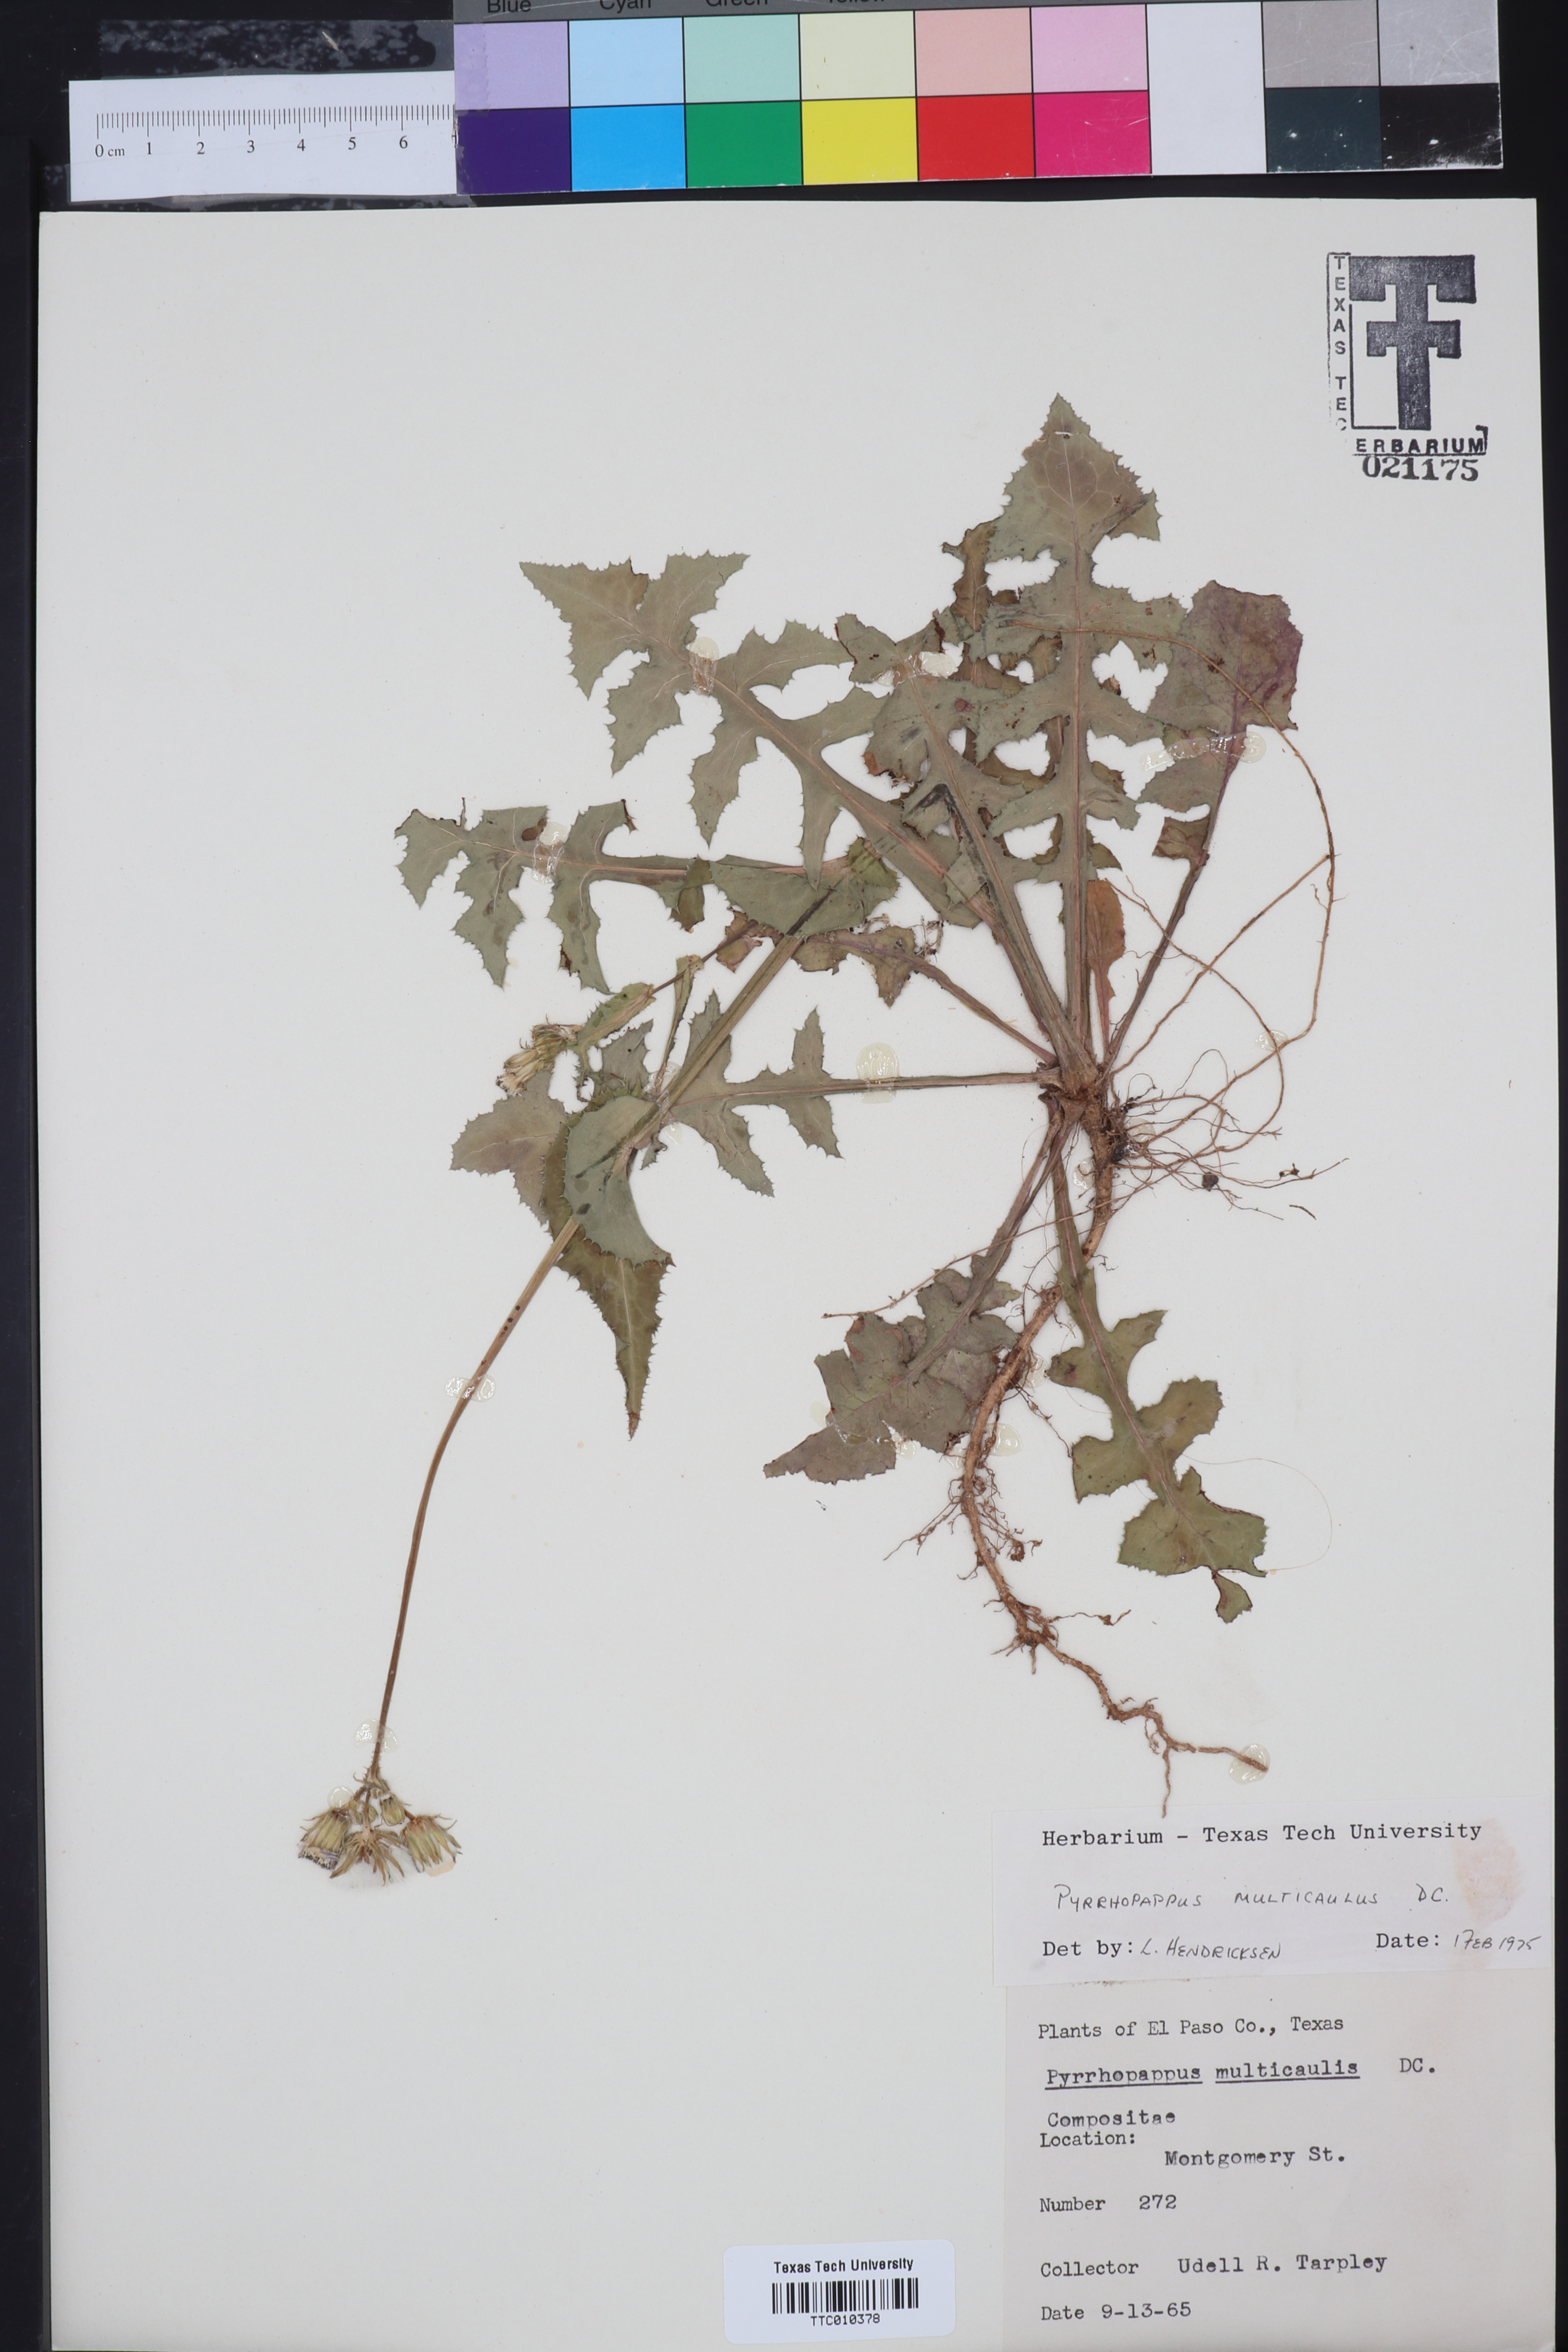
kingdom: Plantae
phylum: Tracheophyta
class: Magnoliopsida
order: Asterales
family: Asteraceae
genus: Pyrrhopappus
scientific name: Pyrrhopappus pauciflorus
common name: Texas false dandelion
